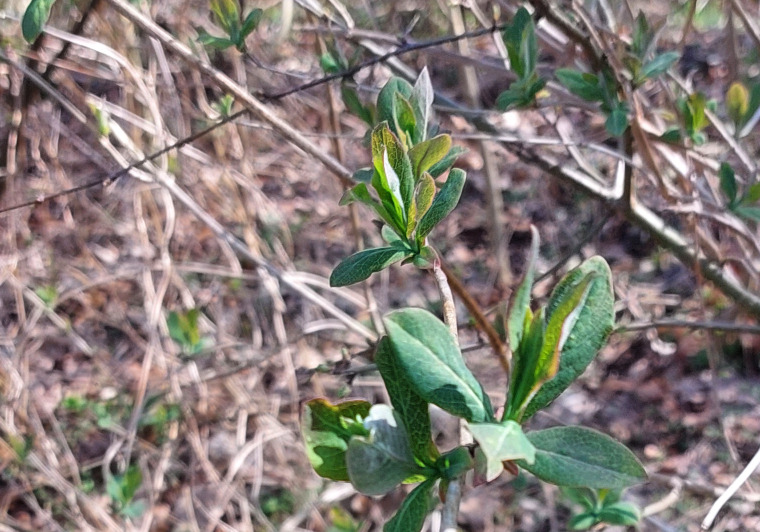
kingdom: Plantae
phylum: Tracheophyta
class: Magnoliopsida
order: Dipsacales
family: Caprifoliaceae
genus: Lonicera
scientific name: Lonicera periclymenum
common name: Almindelig gedeblad
